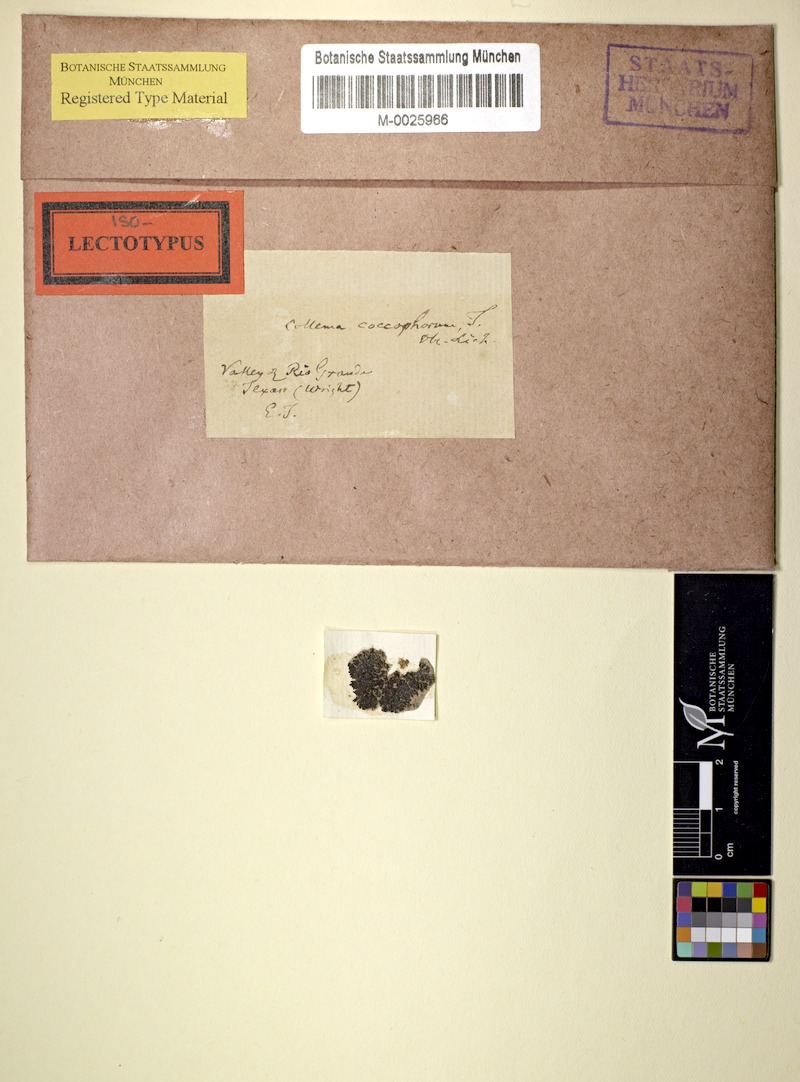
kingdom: Fungi
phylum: Ascomycota
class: Lecanoromycetes
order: Peltigerales
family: Collemataceae
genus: Enchylium
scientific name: Enchylium coccophorum
